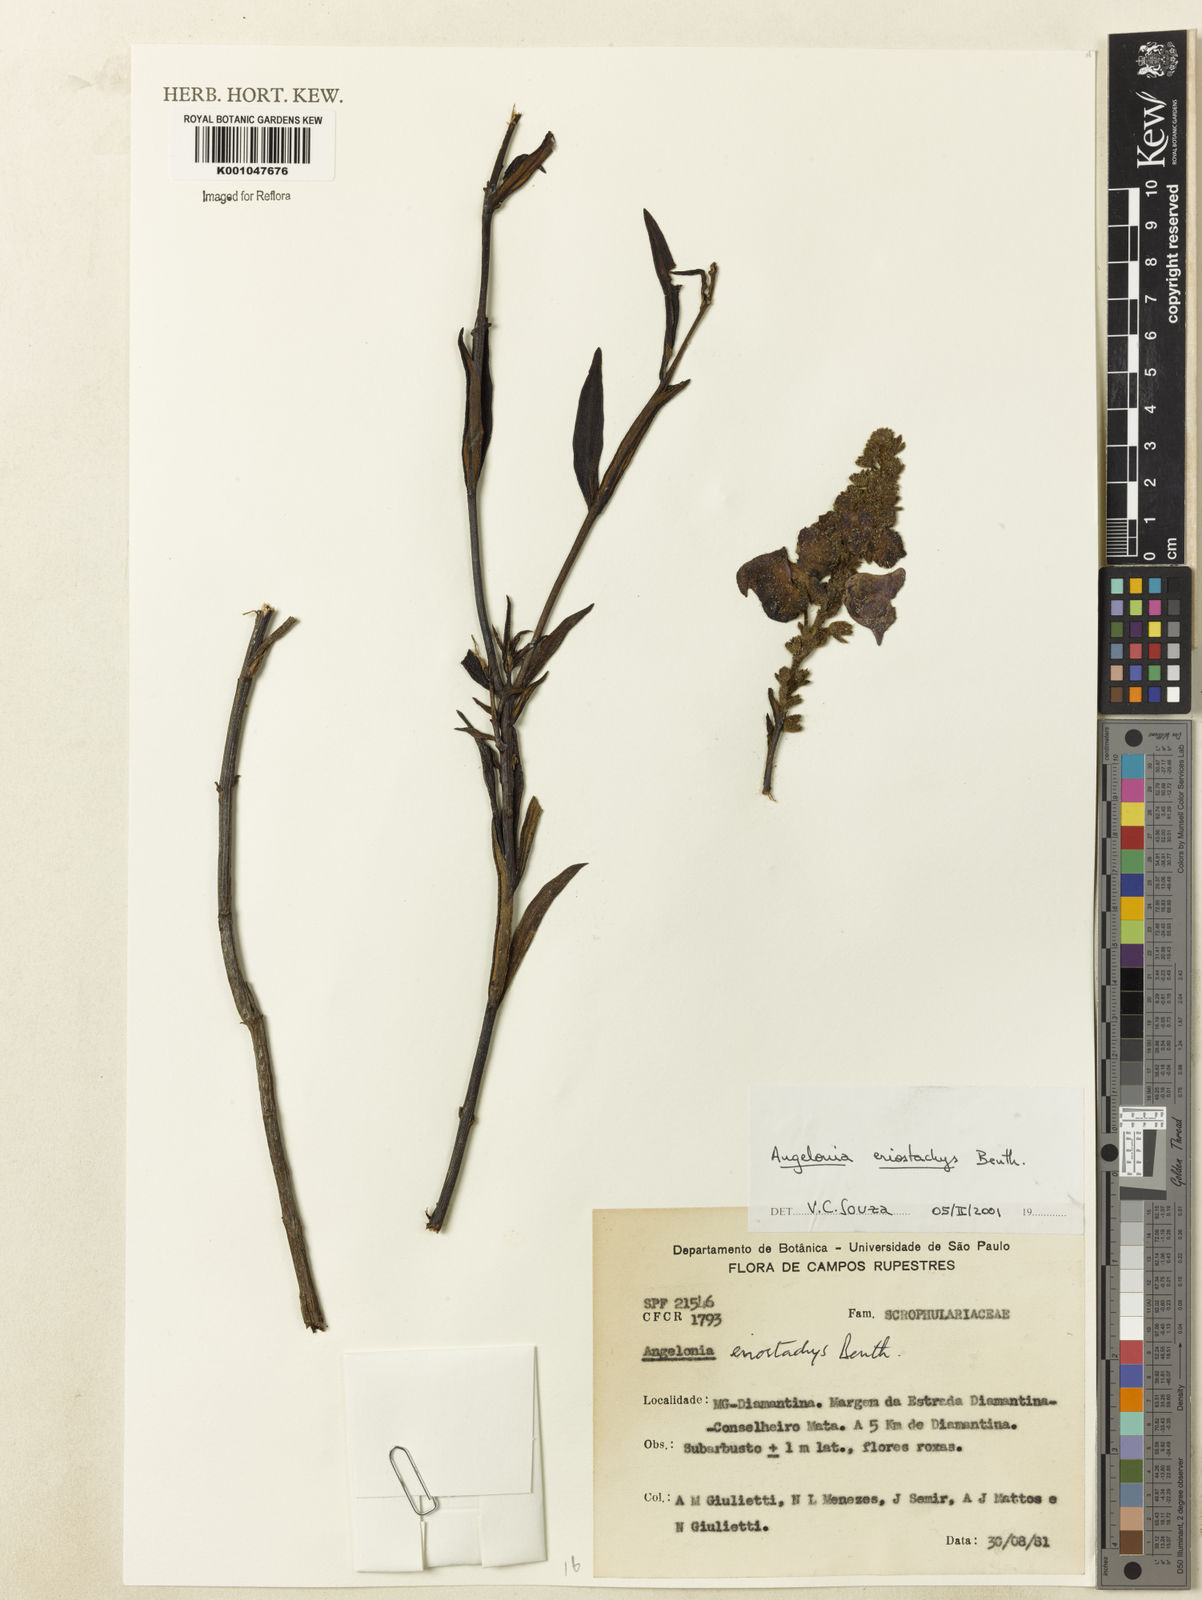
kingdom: Plantae
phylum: Tracheophyta
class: Magnoliopsida
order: Lamiales
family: Plantaginaceae
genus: Angelonia
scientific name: Angelonia eriostachys
